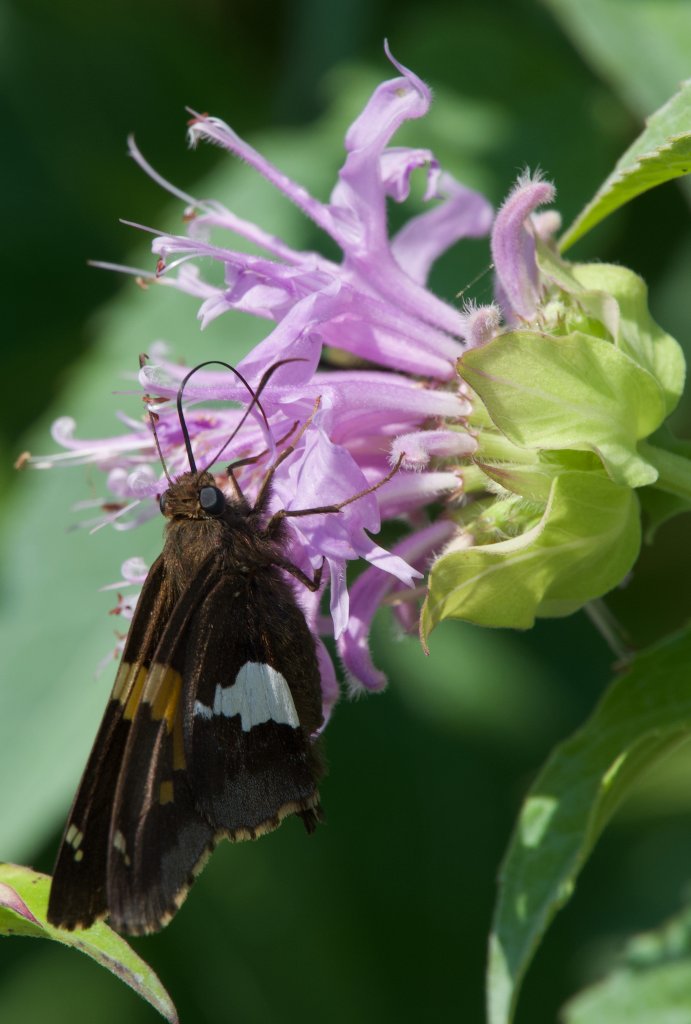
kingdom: Animalia
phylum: Arthropoda
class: Insecta
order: Lepidoptera
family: Hesperiidae
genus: Epargyreus
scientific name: Epargyreus clarus
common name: Silver-spotted Skipper
